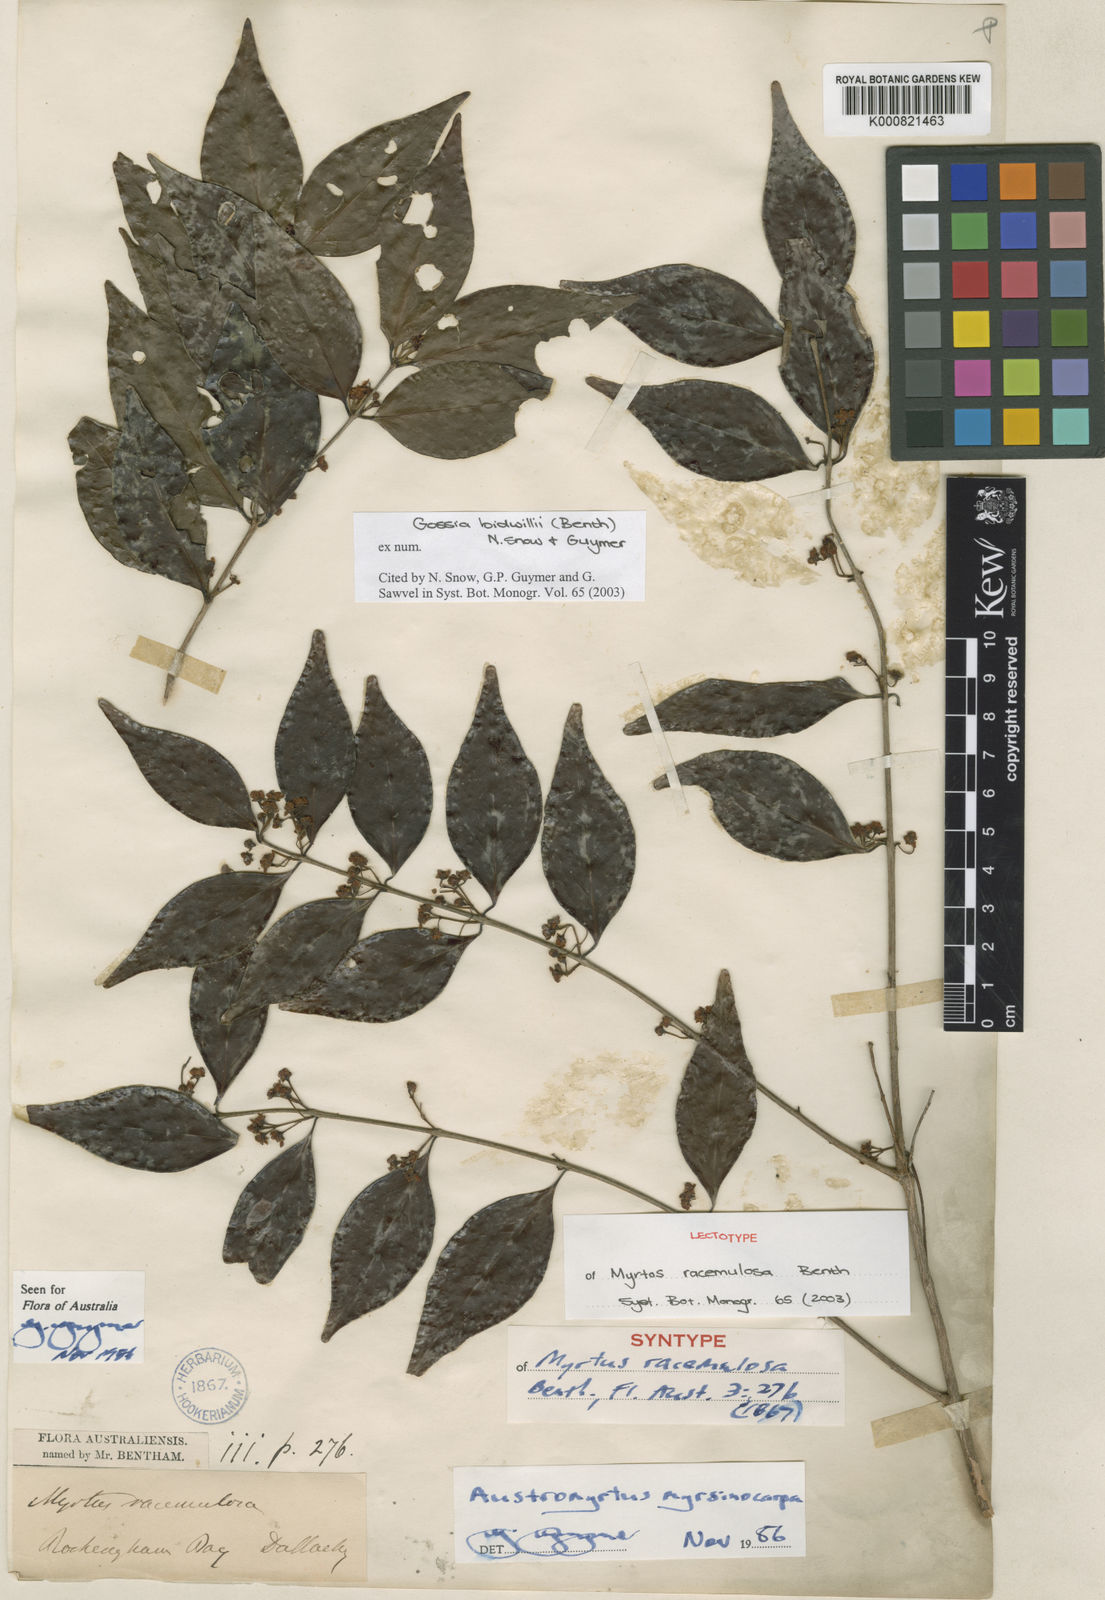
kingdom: Plantae
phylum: Tracheophyta
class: Magnoliopsida
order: Myrtales
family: Myrtaceae
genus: Gossia
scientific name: Gossia bidwillii
